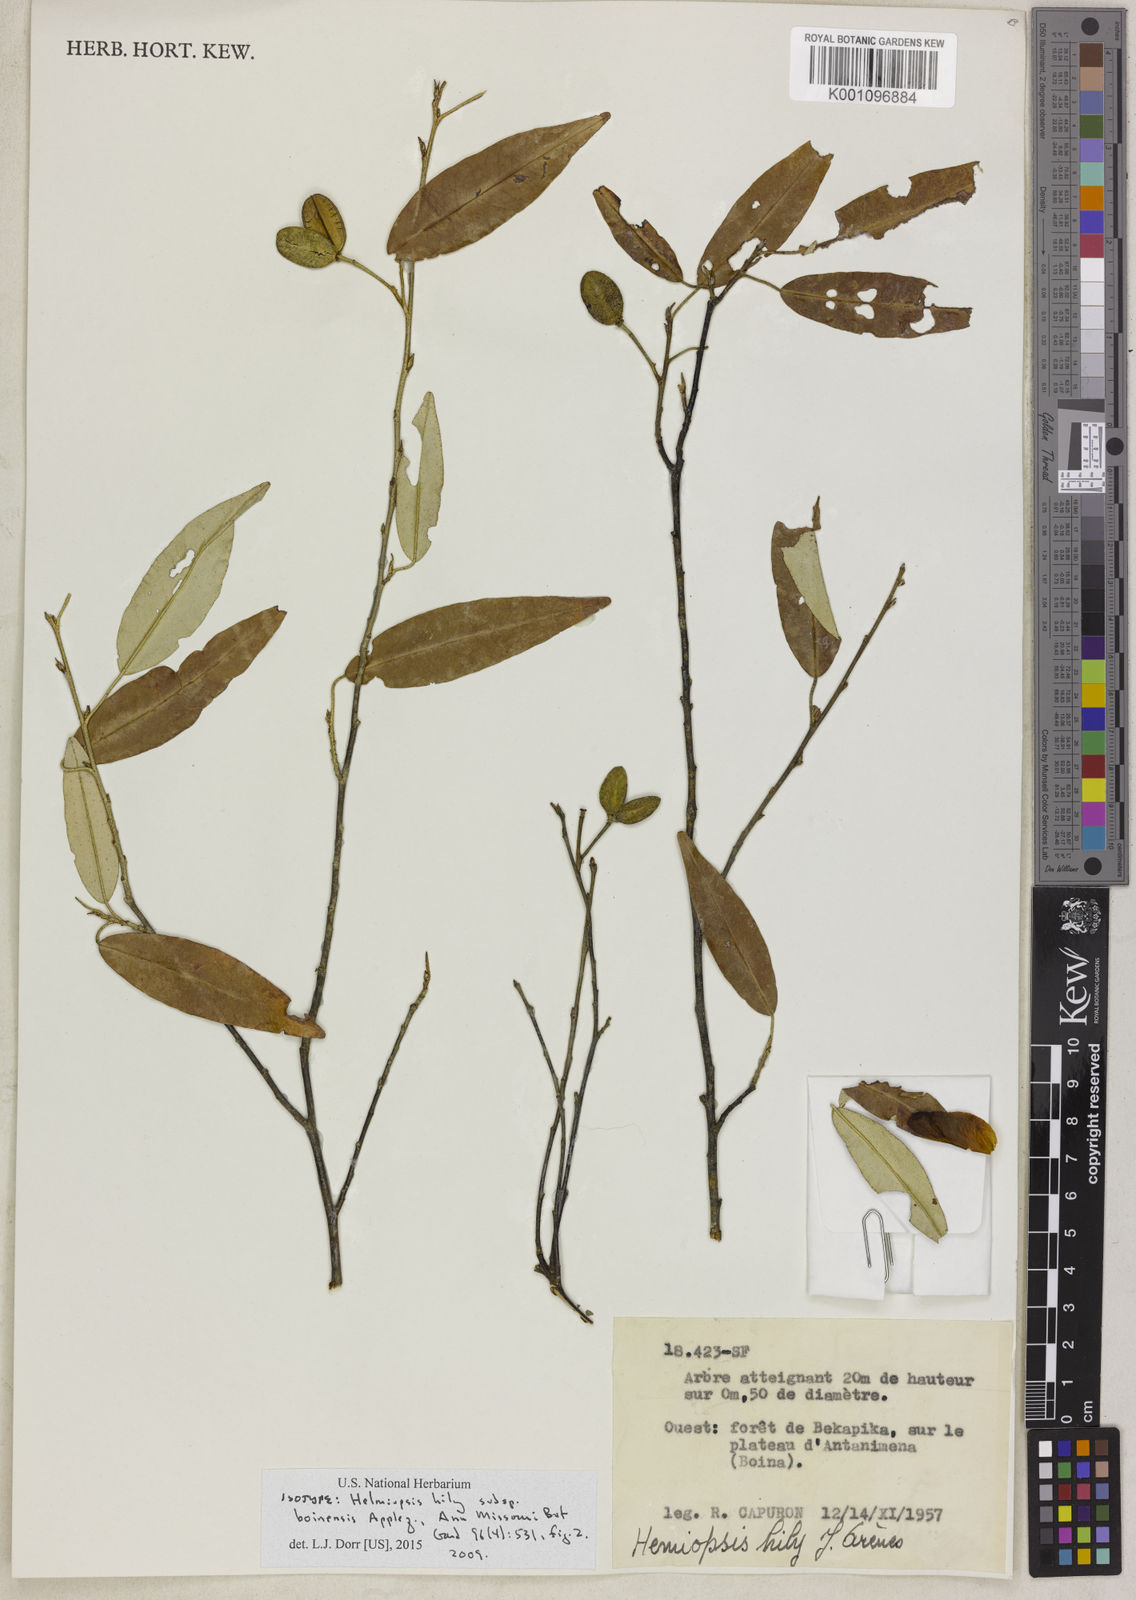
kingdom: Plantae
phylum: Tracheophyta
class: Magnoliopsida
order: Malvales
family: Malvaceae
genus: Eriolaena
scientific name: Eriolaena hily
